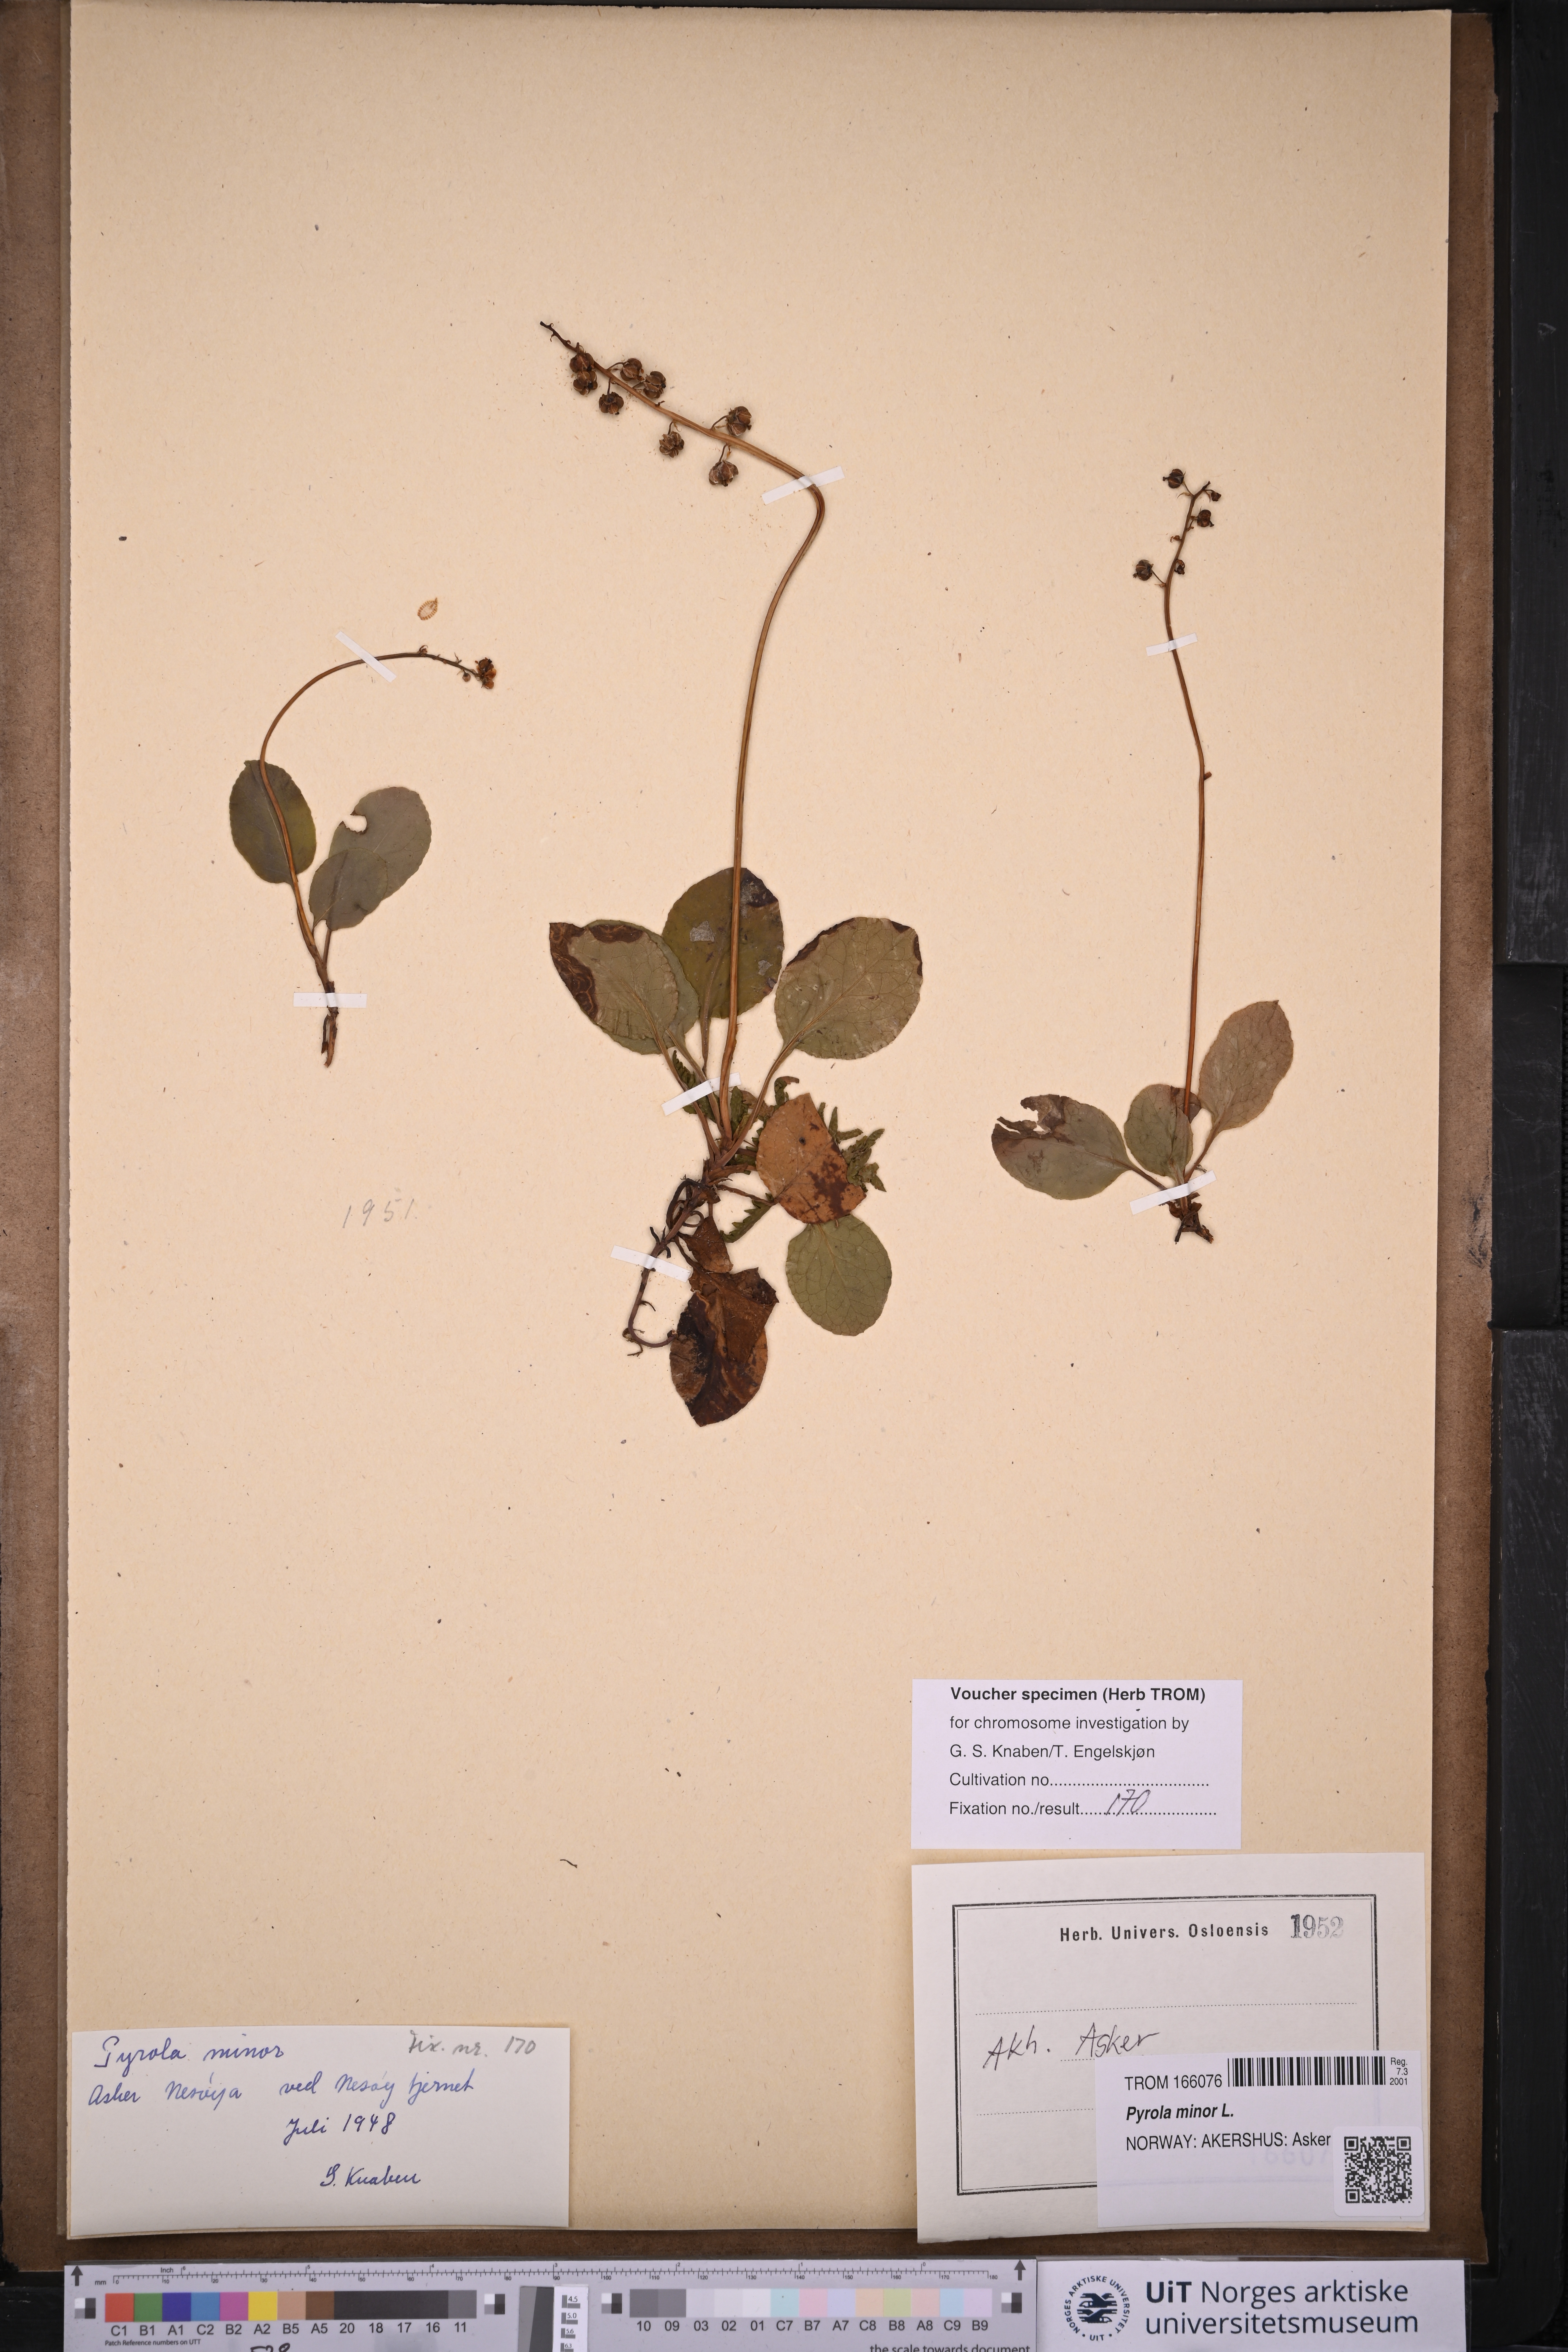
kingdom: Plantae
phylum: Tracheophyta
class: Magnoliopsida
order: Ericales
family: Ericaceae
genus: Pyrola
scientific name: Pyrola minor
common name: Common wintergreen
